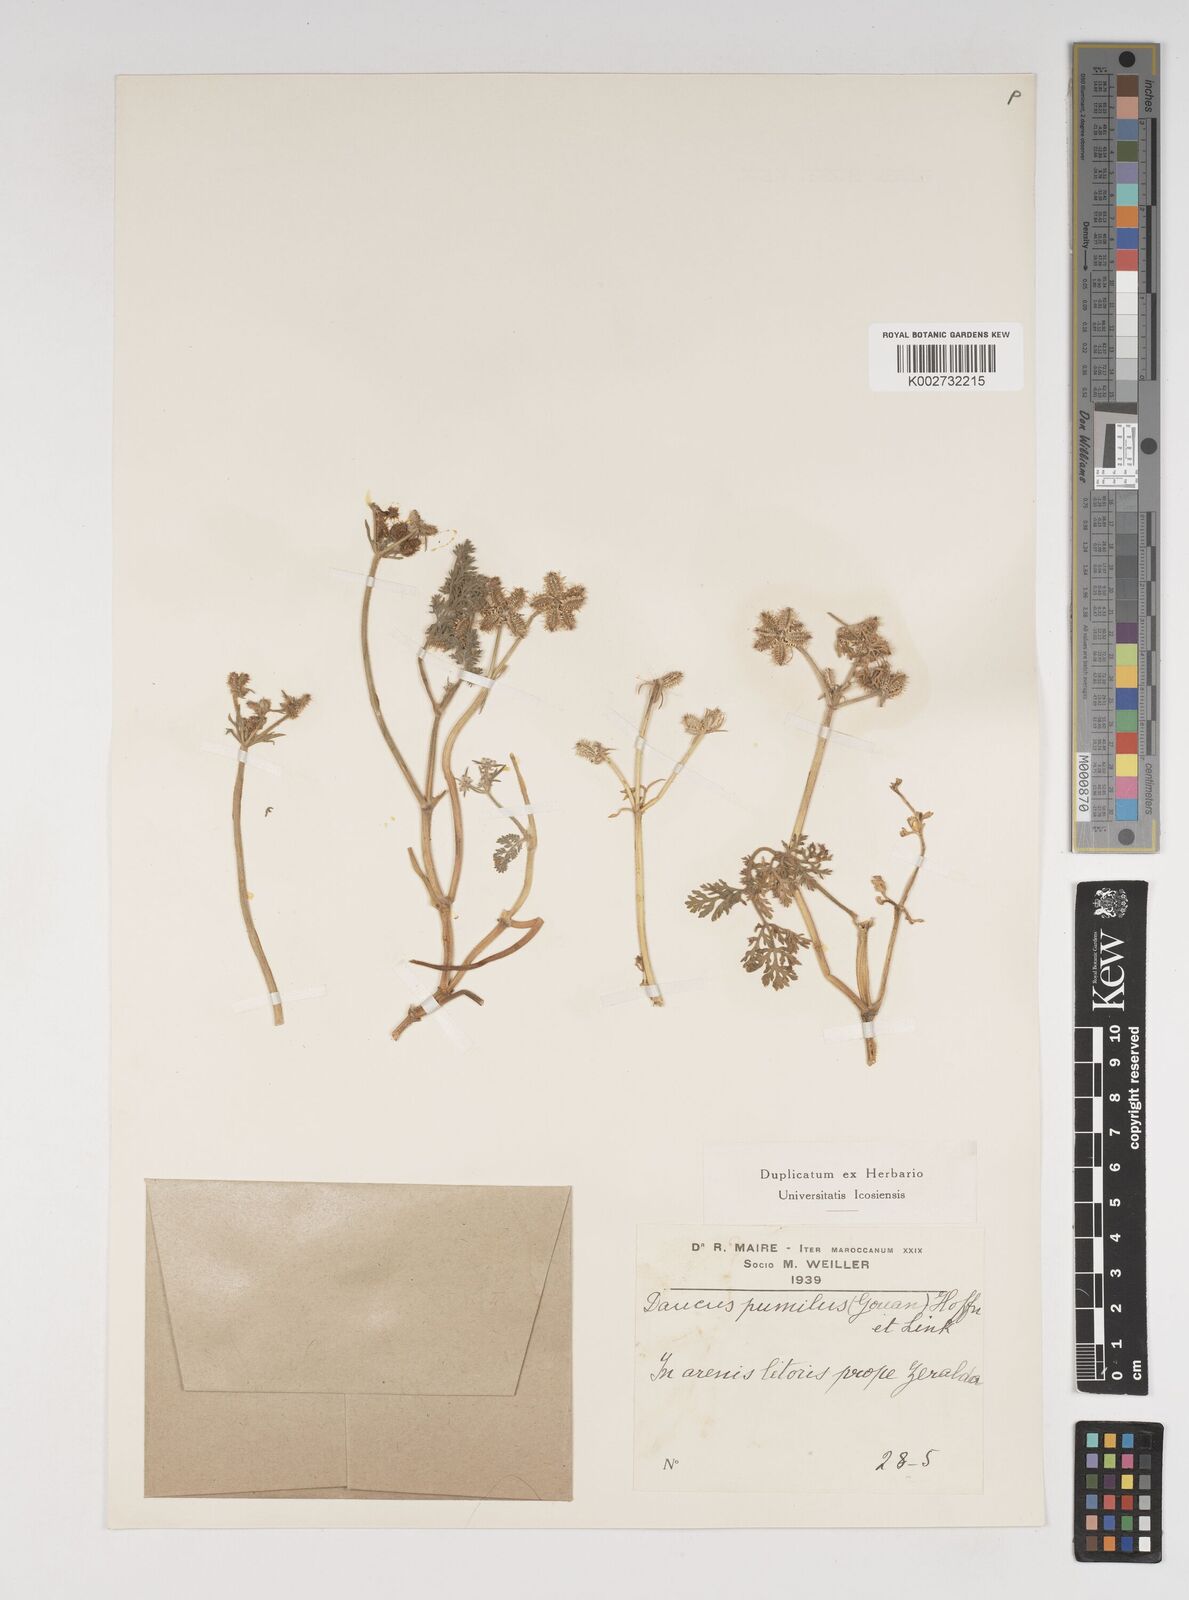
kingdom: Plantae
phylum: Tracheophyta
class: Magnoliopsida
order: Apiales
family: Apiaceae
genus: Daucus
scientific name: Daucus pumilus
